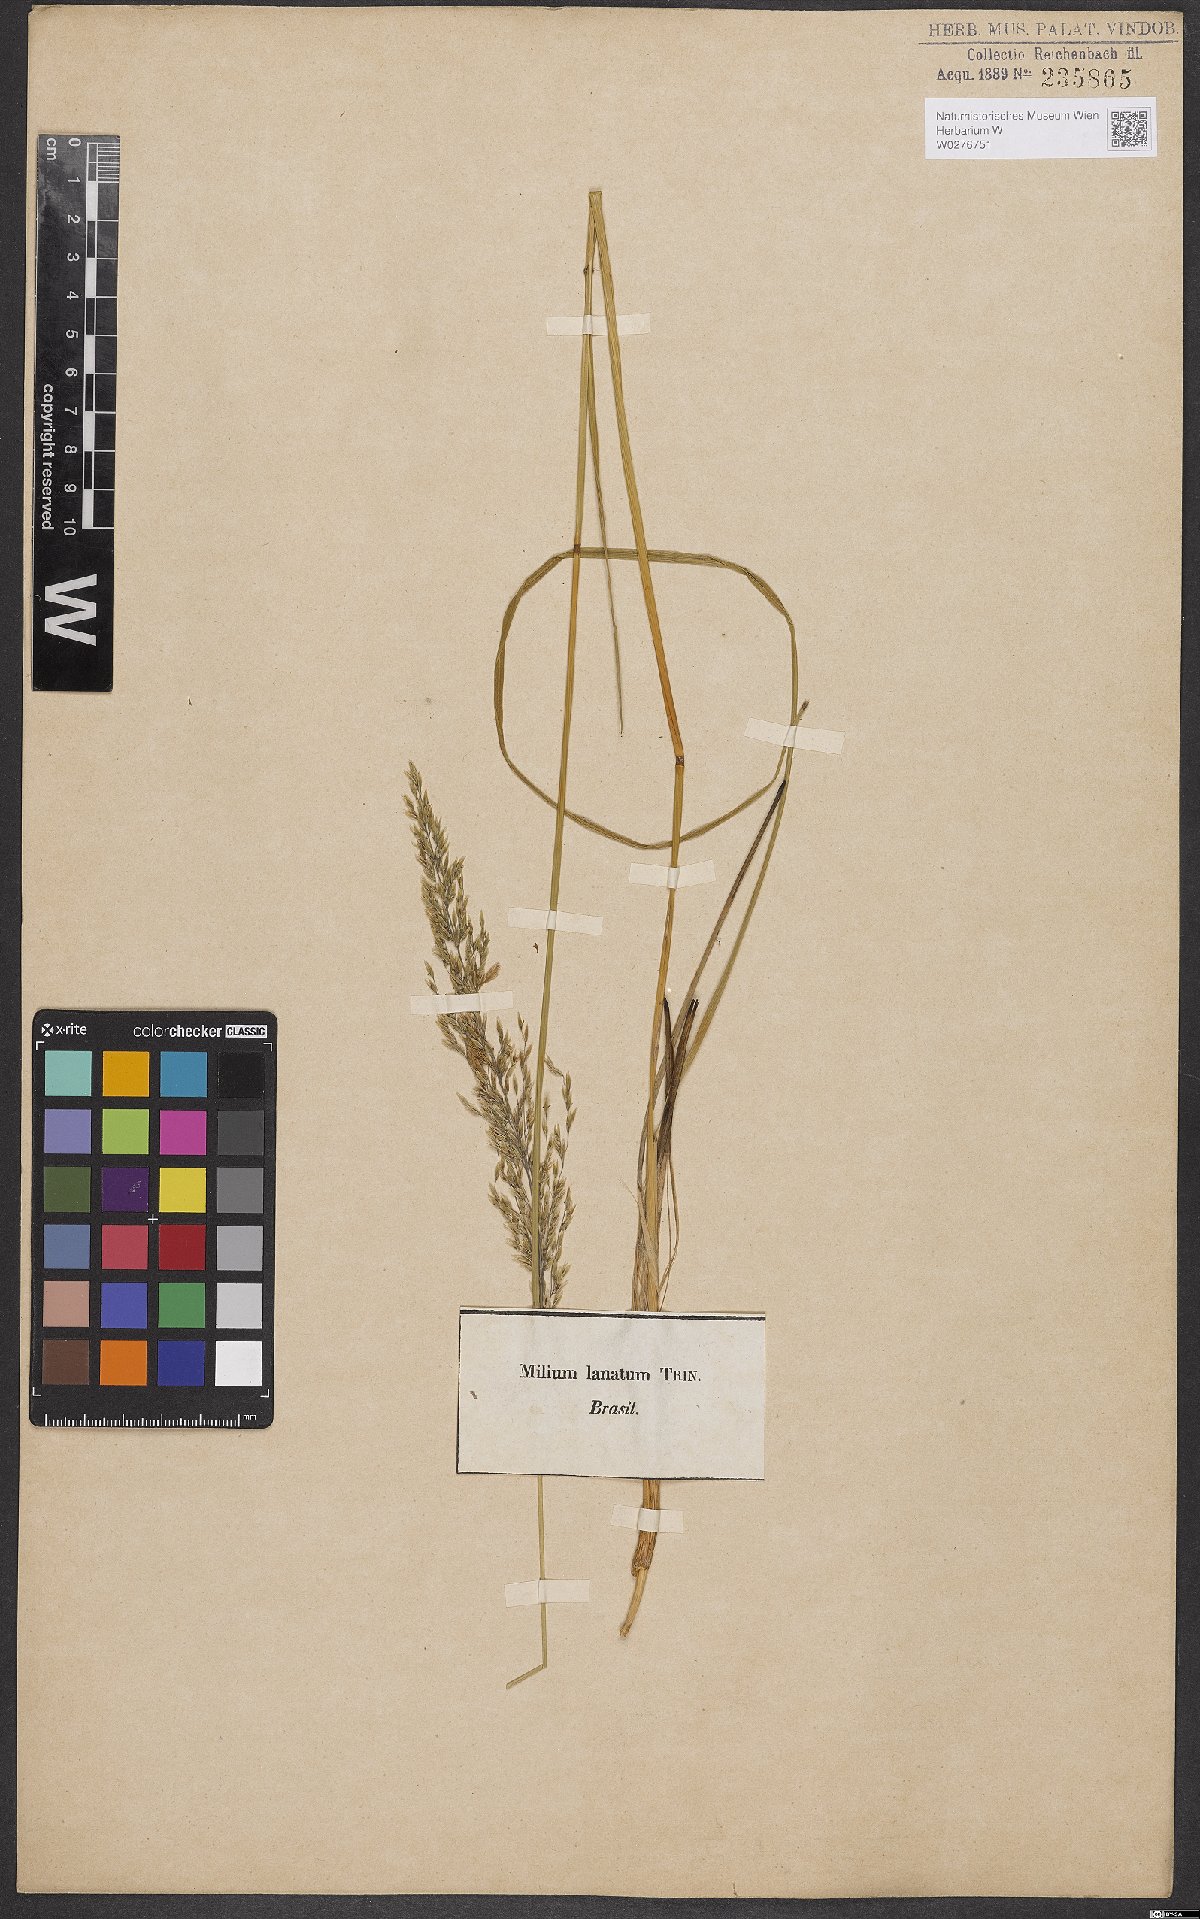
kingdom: Plantae
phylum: Tracheophyta
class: Liliopsida
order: Poales
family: Poaceae
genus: Anthaenantia
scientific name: Anthaenantia lanata
